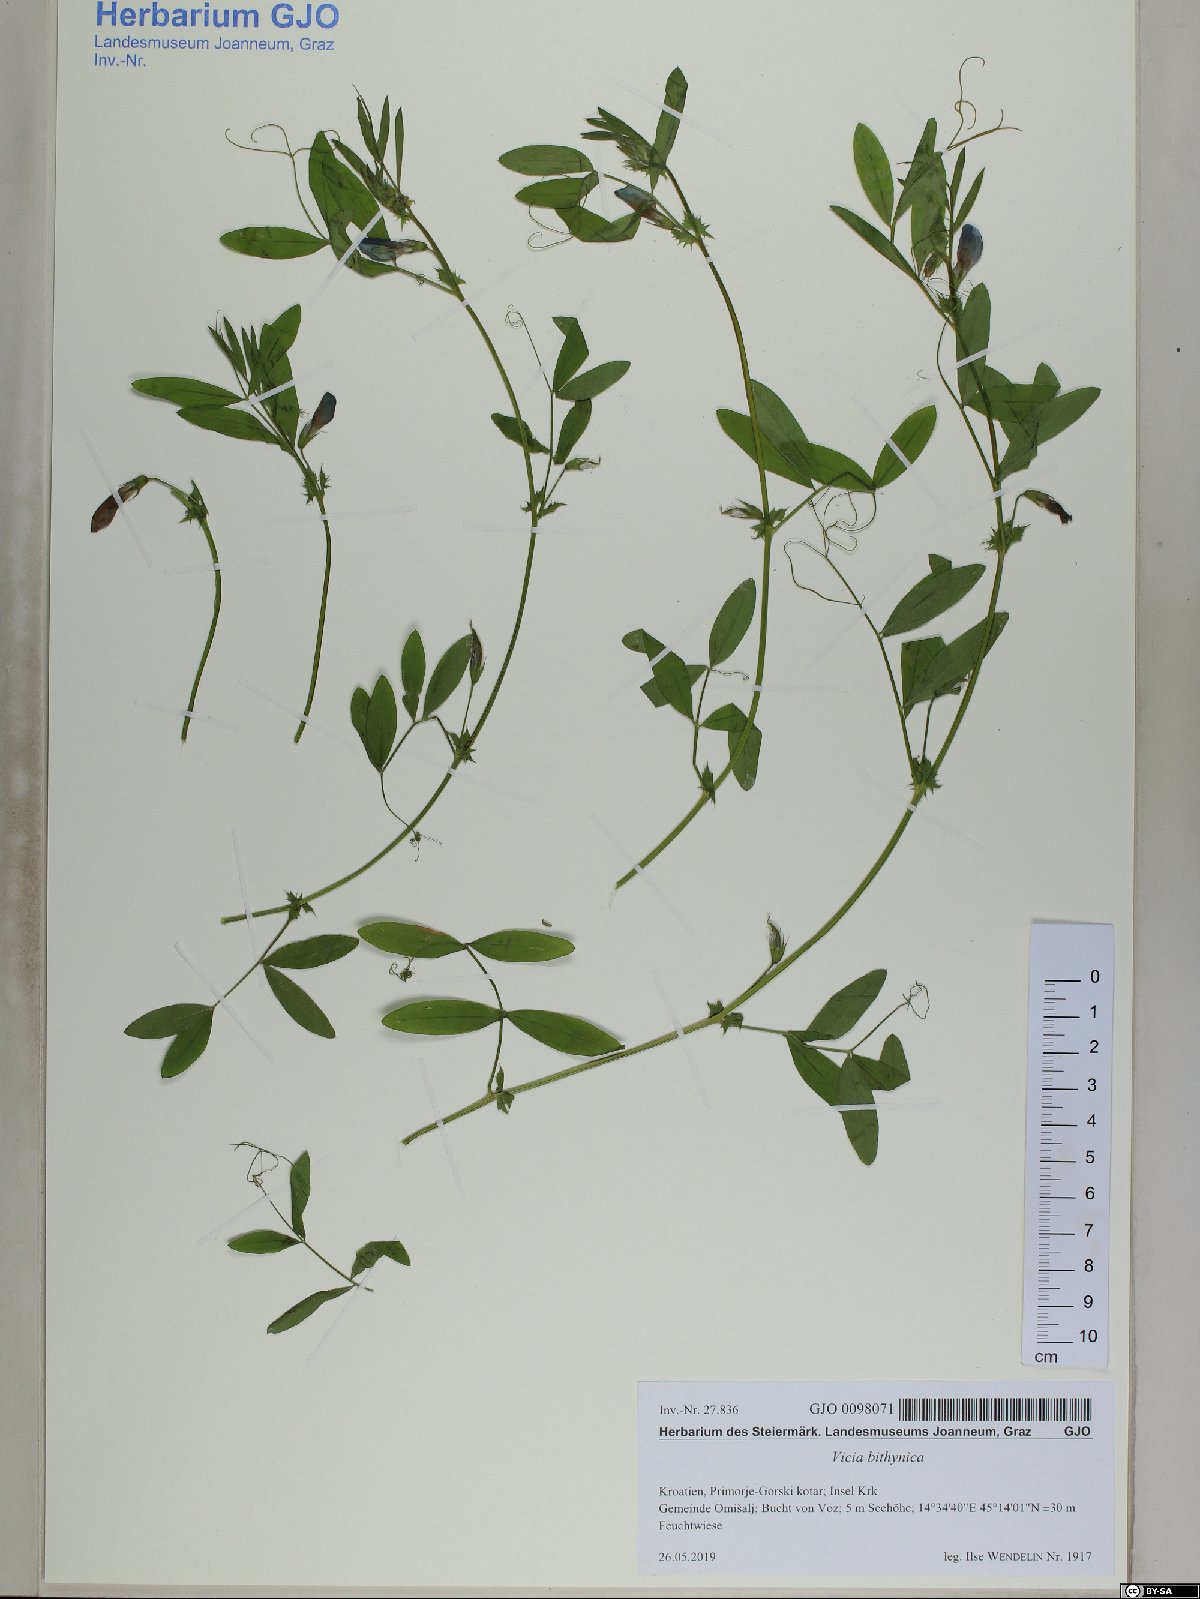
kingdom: Plantae
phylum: Tracheophyta
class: Magnoliopsida
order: Fabales
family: Fabaceae
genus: Vicia
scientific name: Vicia bithynica
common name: Bithynian vetch
